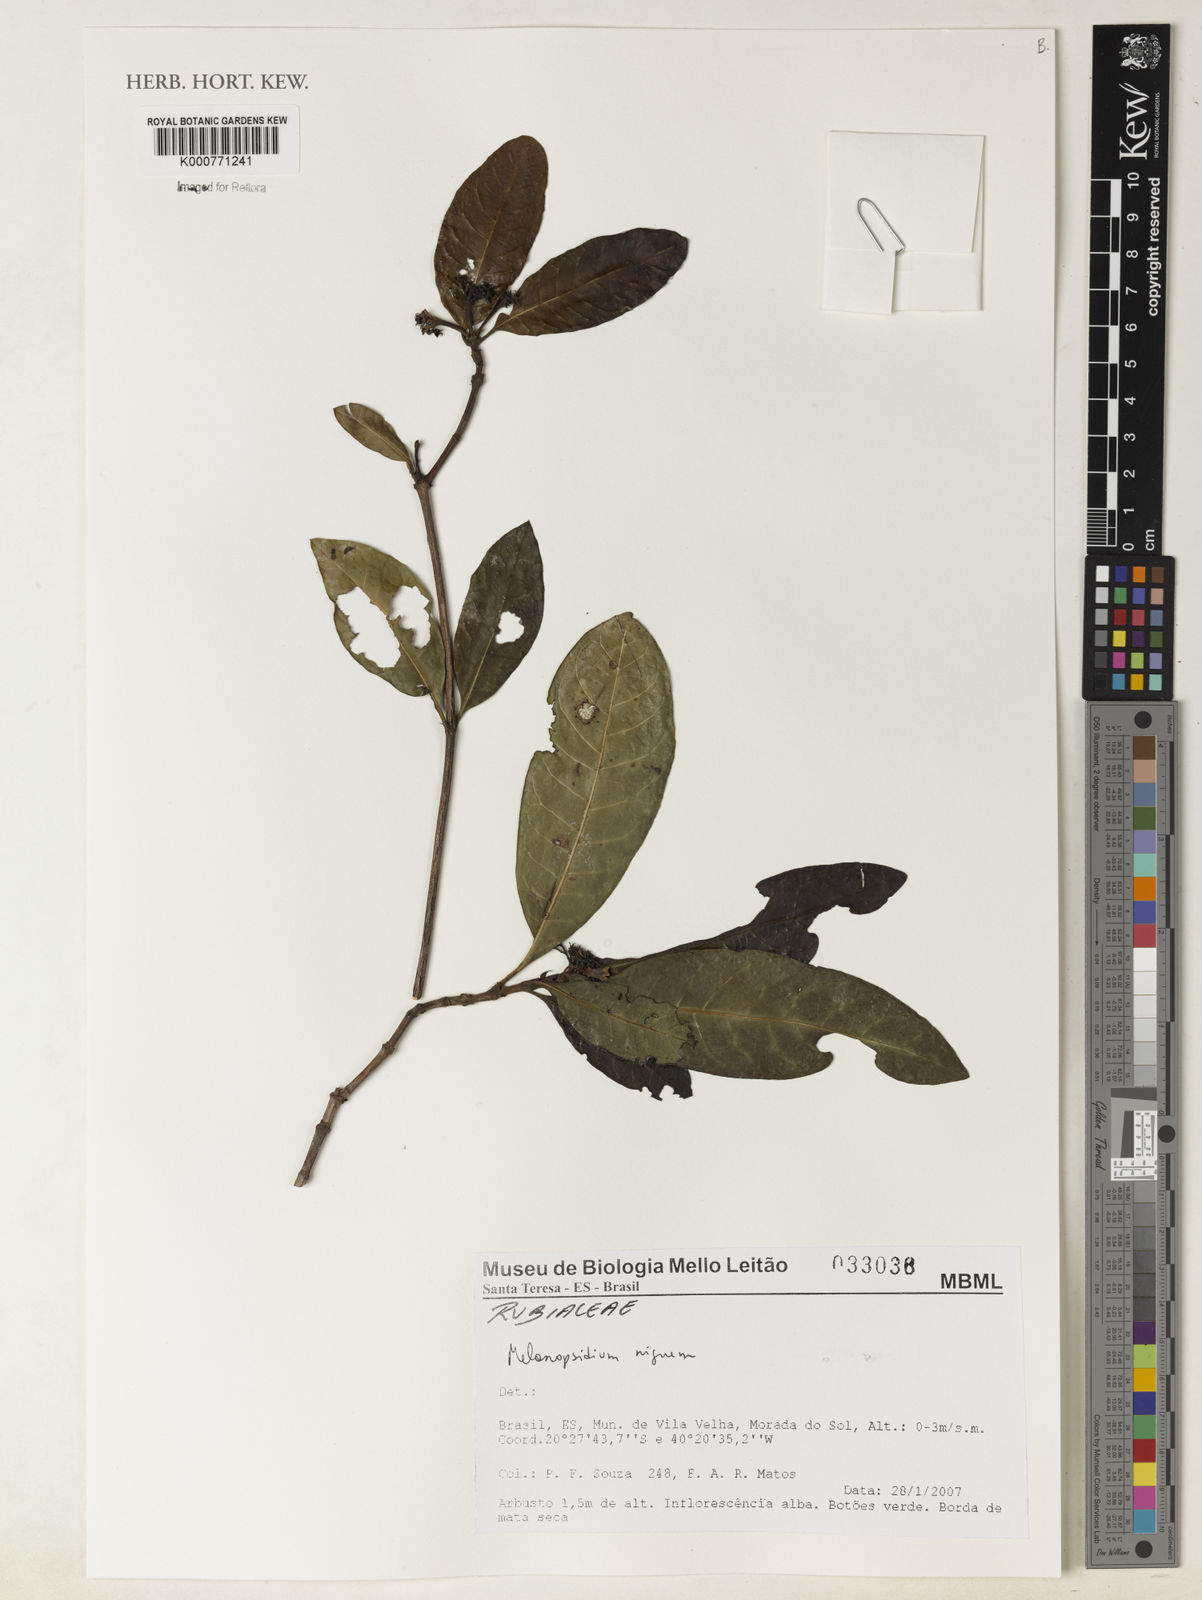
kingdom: Plantae
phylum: Tracheophyta
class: Magnoliopsida
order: Gentianales
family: Rubiaceae
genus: Melanopsidium
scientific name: Melanopsidium nigrum
